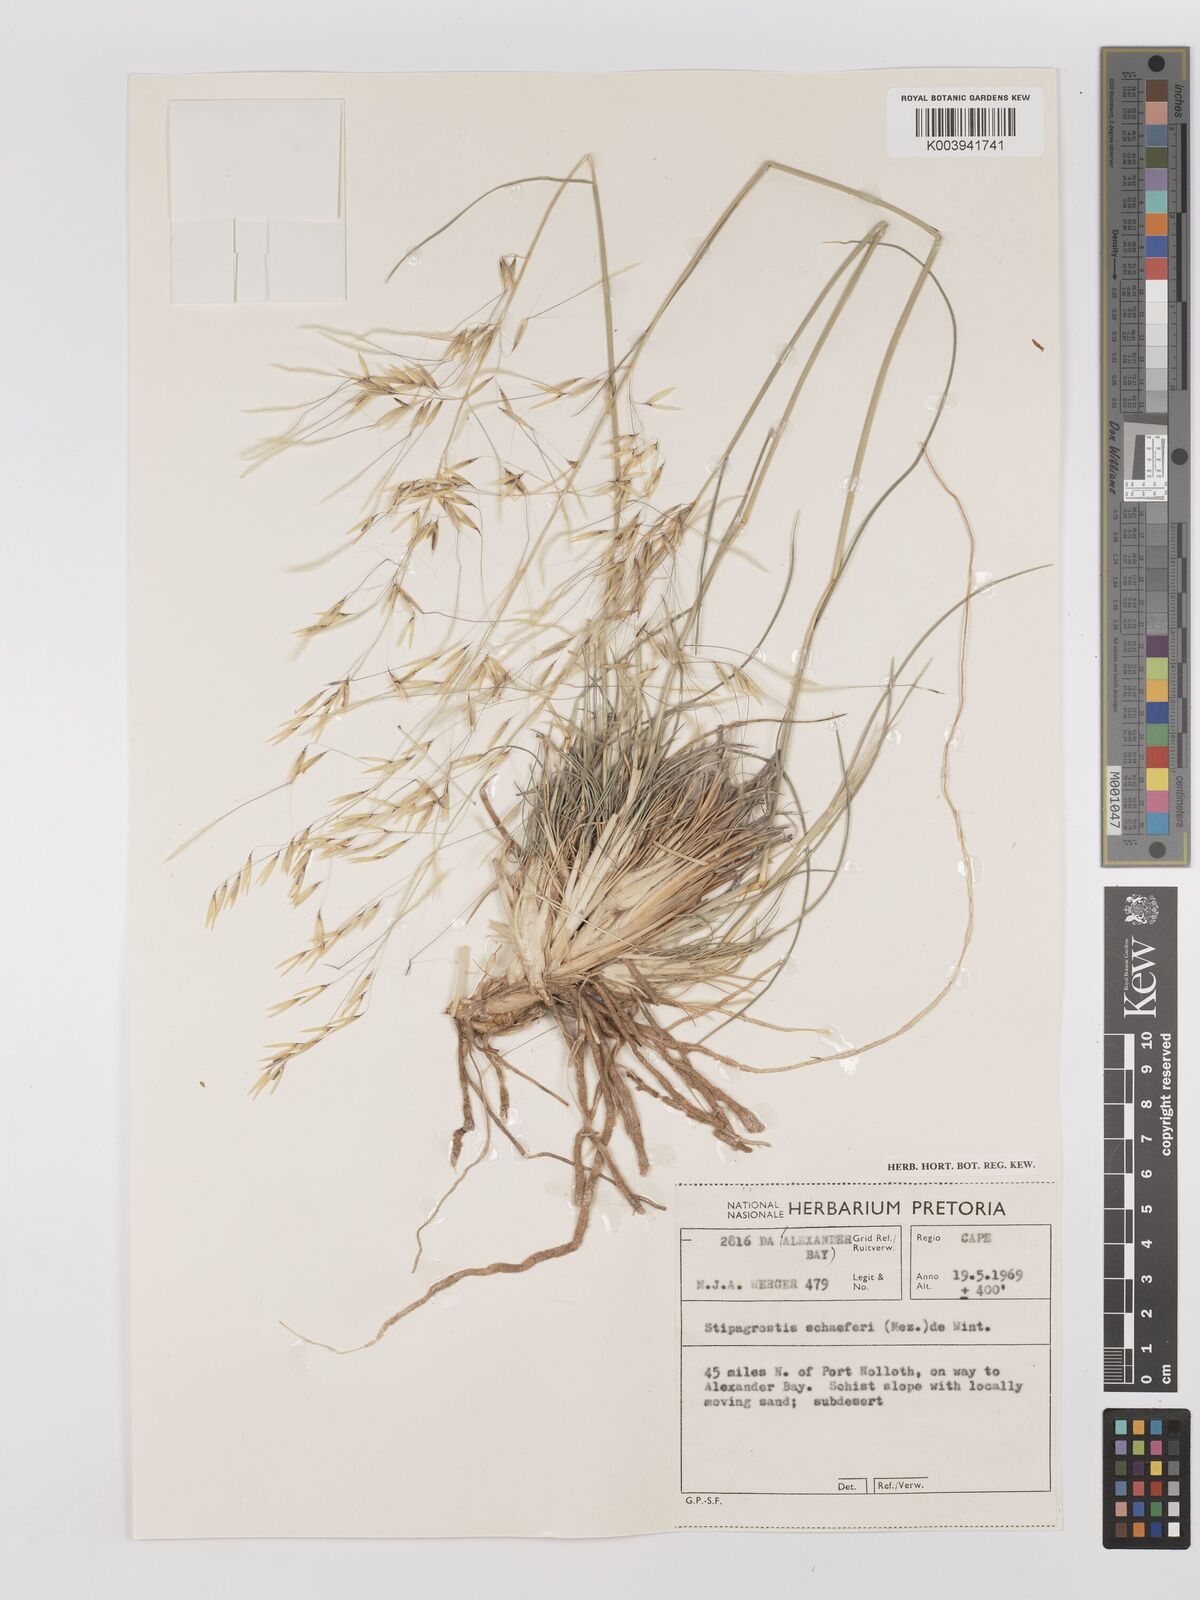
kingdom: Plantae
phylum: Tracheophyta
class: Liliopsida
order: Poales
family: Poaceae
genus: Stipagrostis
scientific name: Stipagrostis schaeferi
